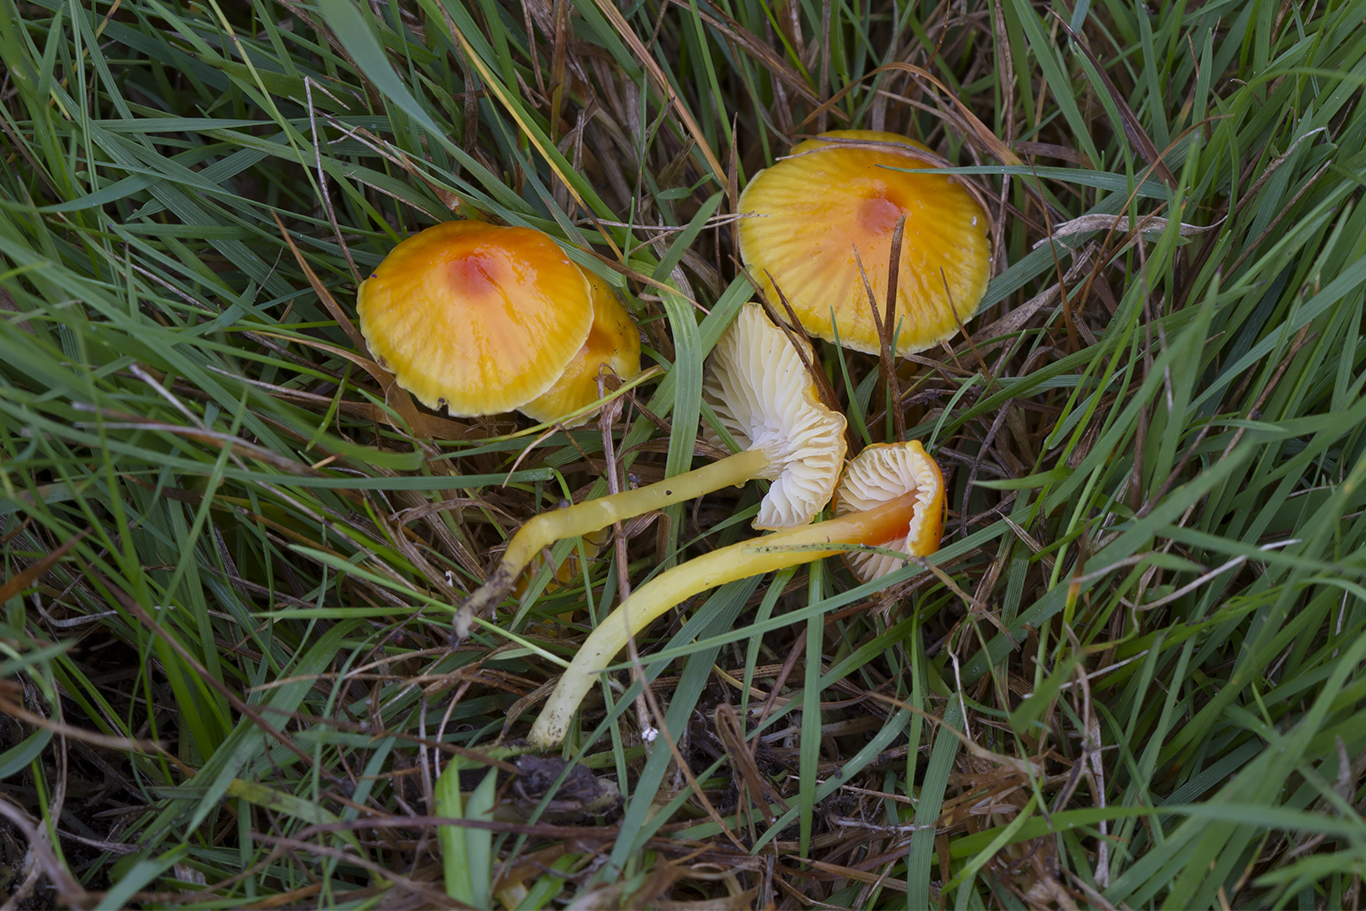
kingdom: Fungi
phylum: Basidiomycota
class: Agaricomycetes
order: Agaricales
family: Hygrophoraceae
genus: Hygrocybe
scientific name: Hygrocybe glutinipes
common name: slimstokket vokshat
